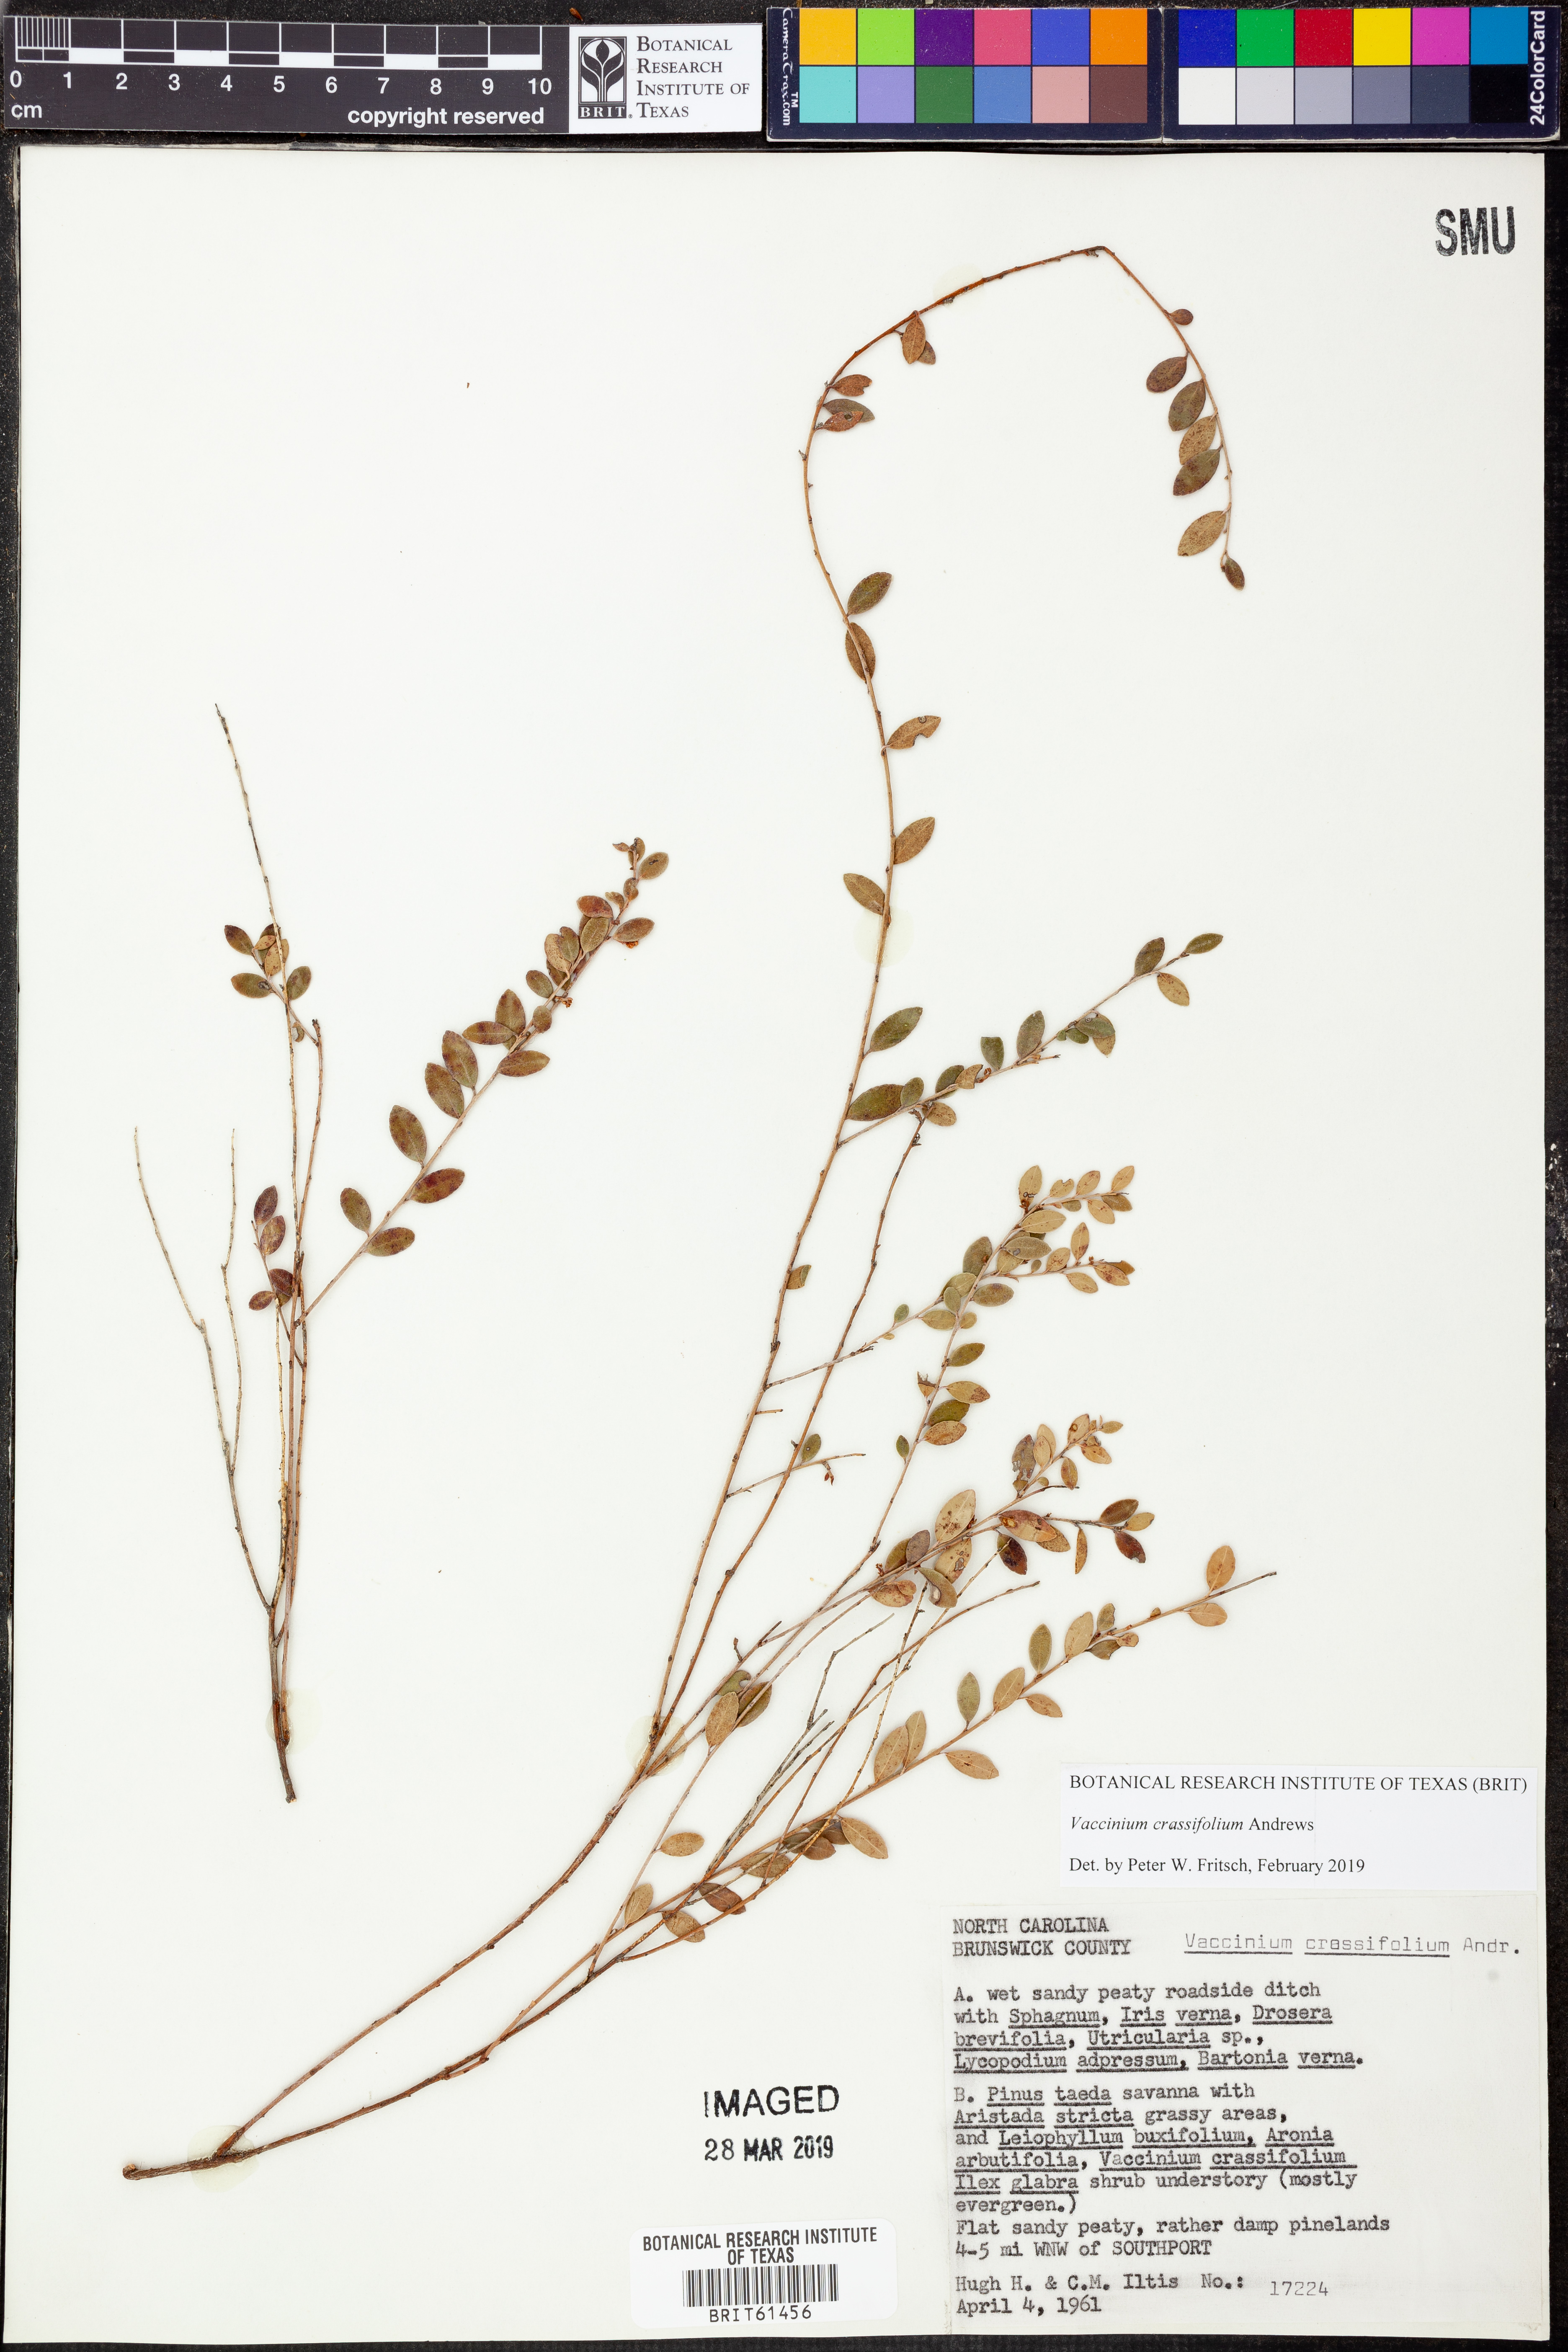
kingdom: Plantae
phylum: Tracheophyta
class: Magnoliopsida
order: Ericales
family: Ericaceae
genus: Vaccinium
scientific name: Vaccinium crassifolium
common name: Creeping blueberry
